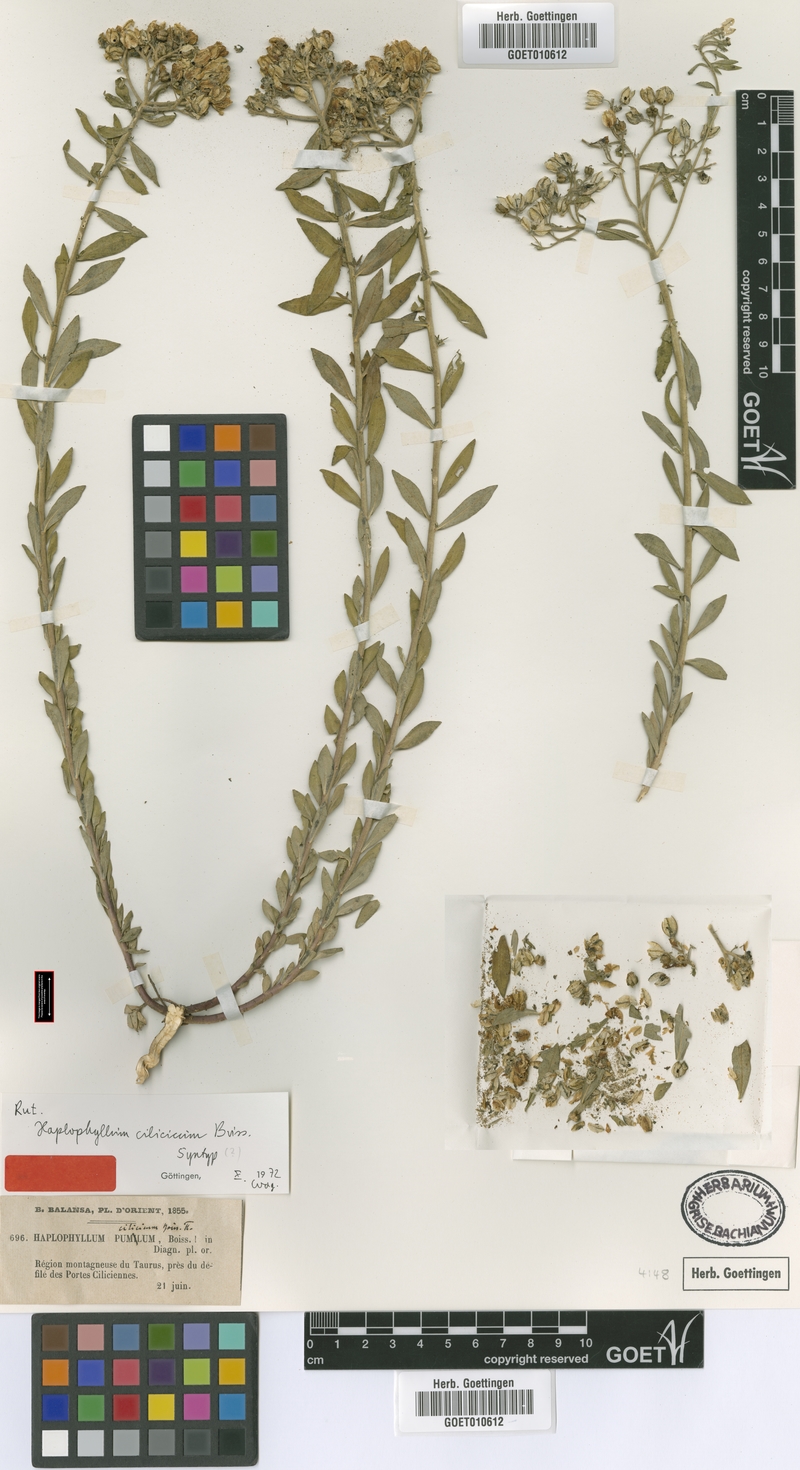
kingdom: Plantae
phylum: Tracheophyta
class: Magnoliopsida
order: Sapindales
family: Rutaceae
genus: Haplophyllum
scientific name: Haplophyllum suaveolens
